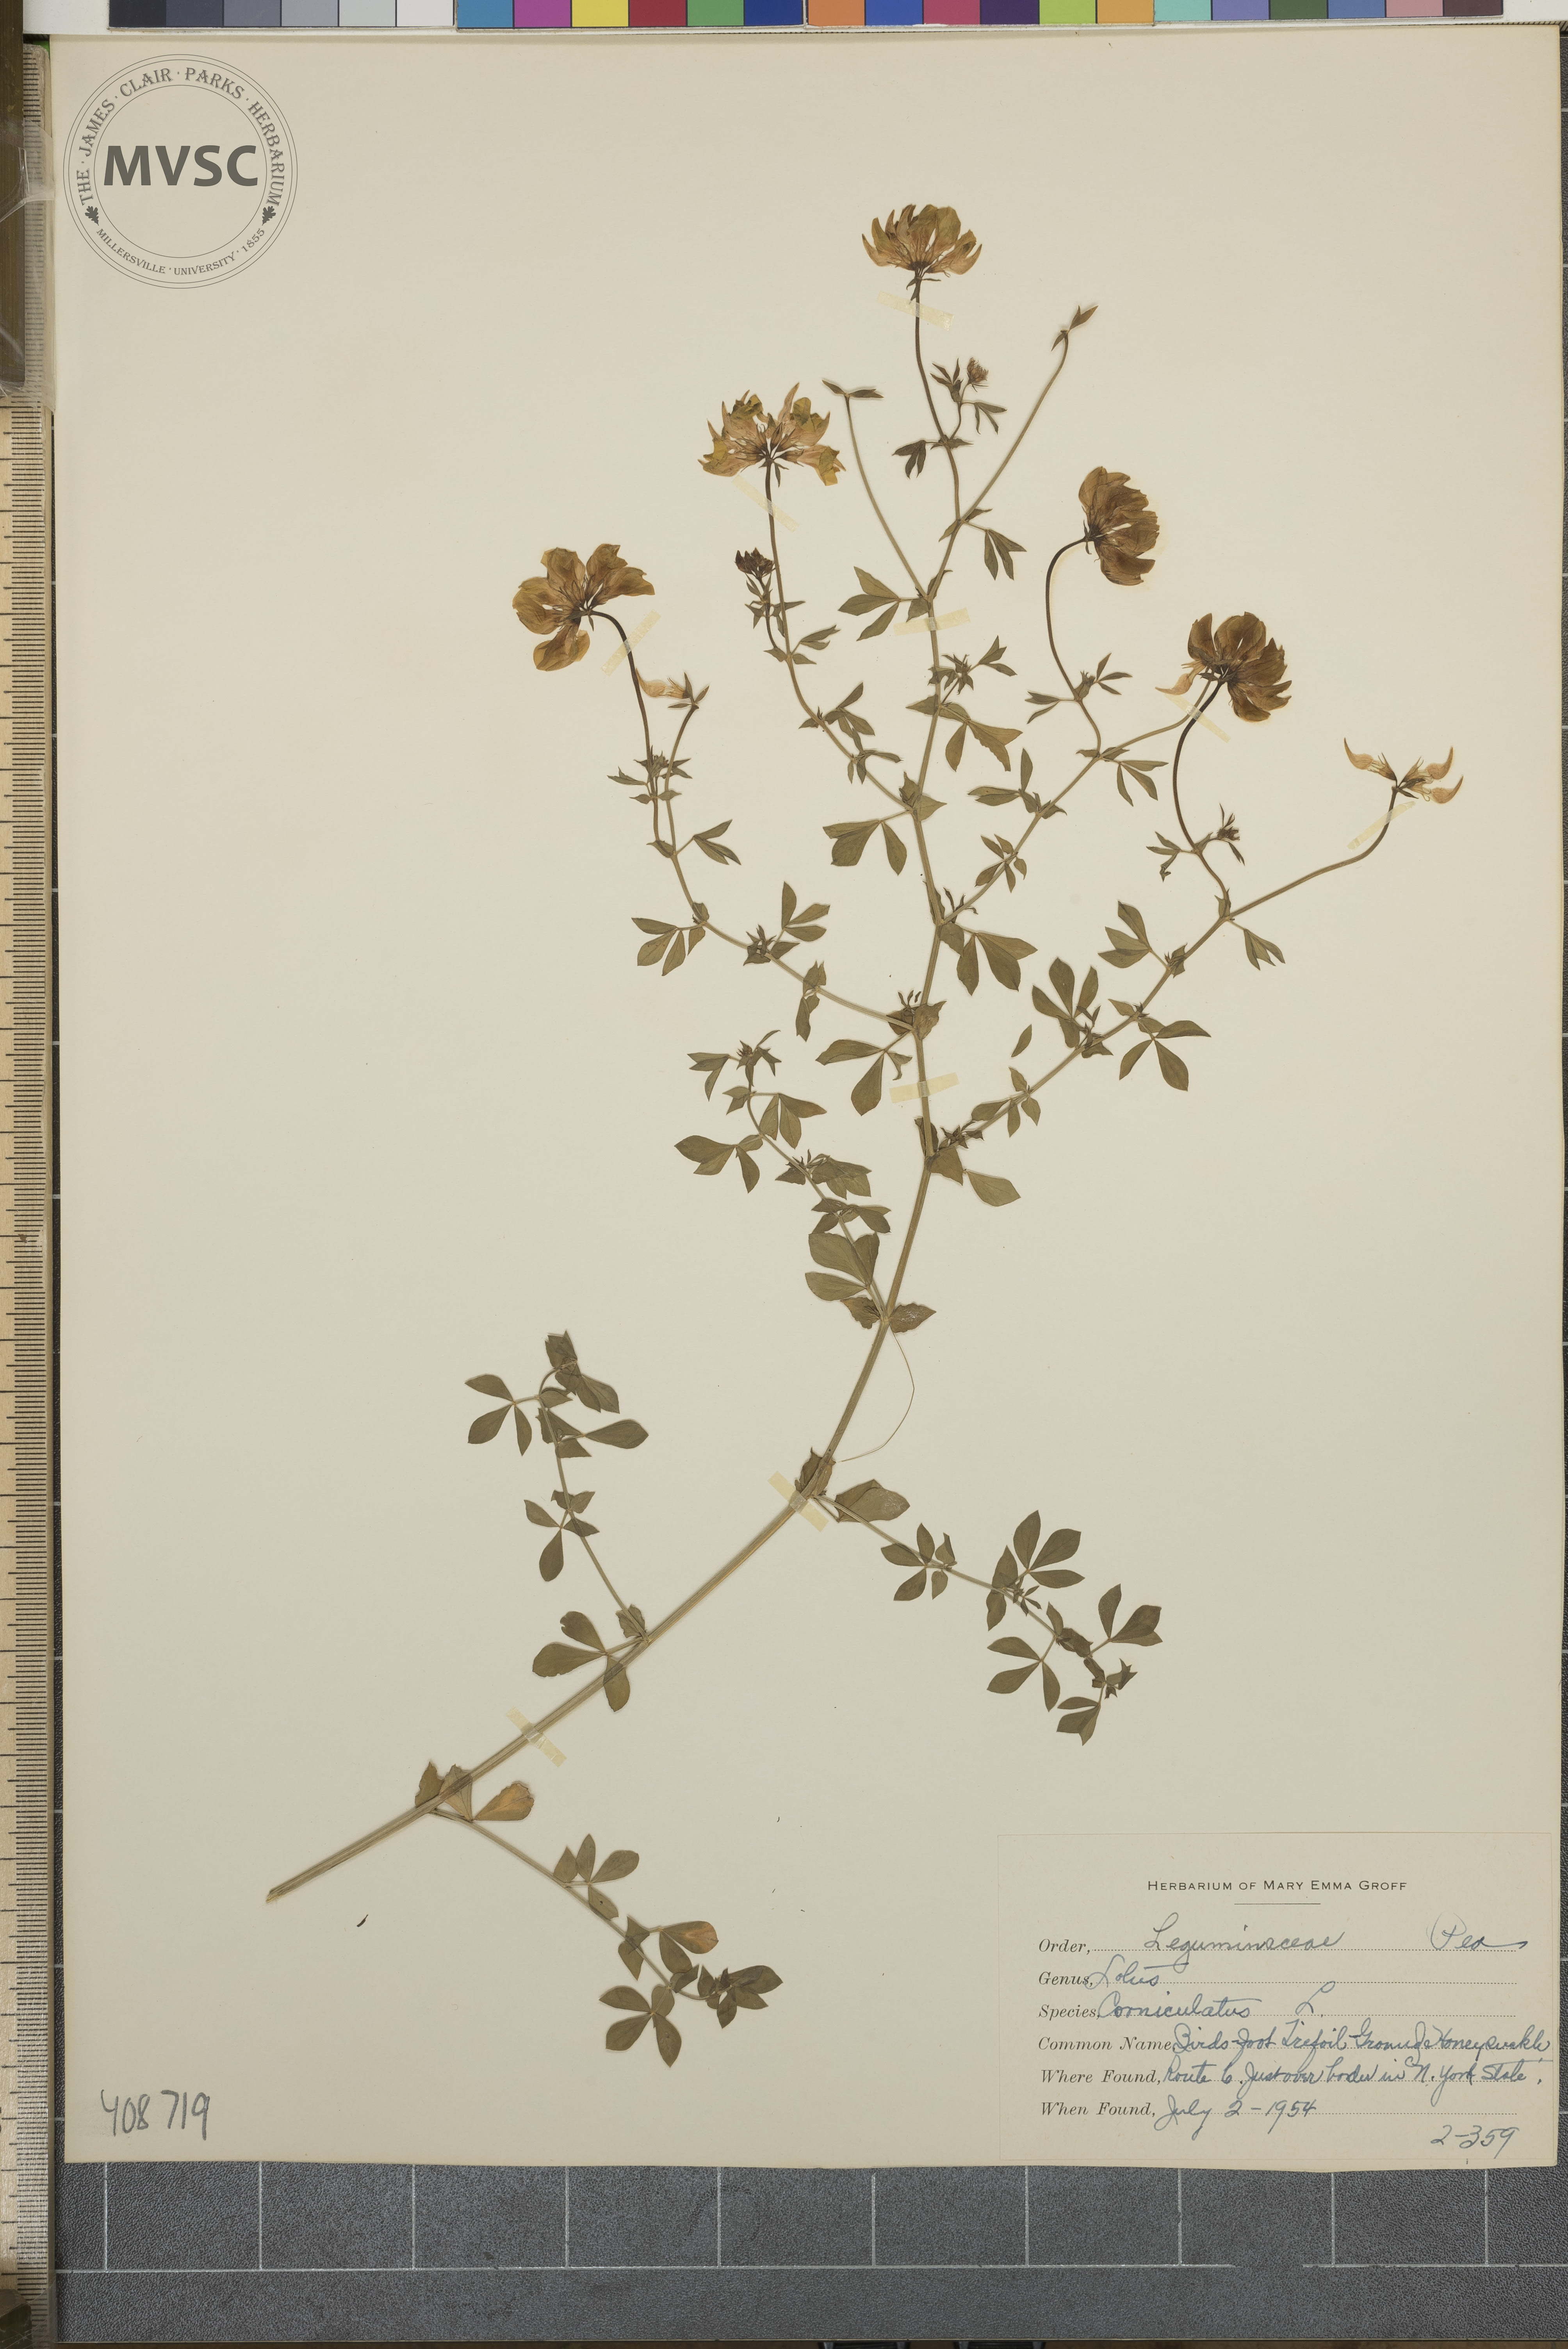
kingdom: Plantae
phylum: Tracheophyta
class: Magnoliopsida
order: Fabales
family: Fabaceae
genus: Lotus
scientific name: Lotus corniculatus
